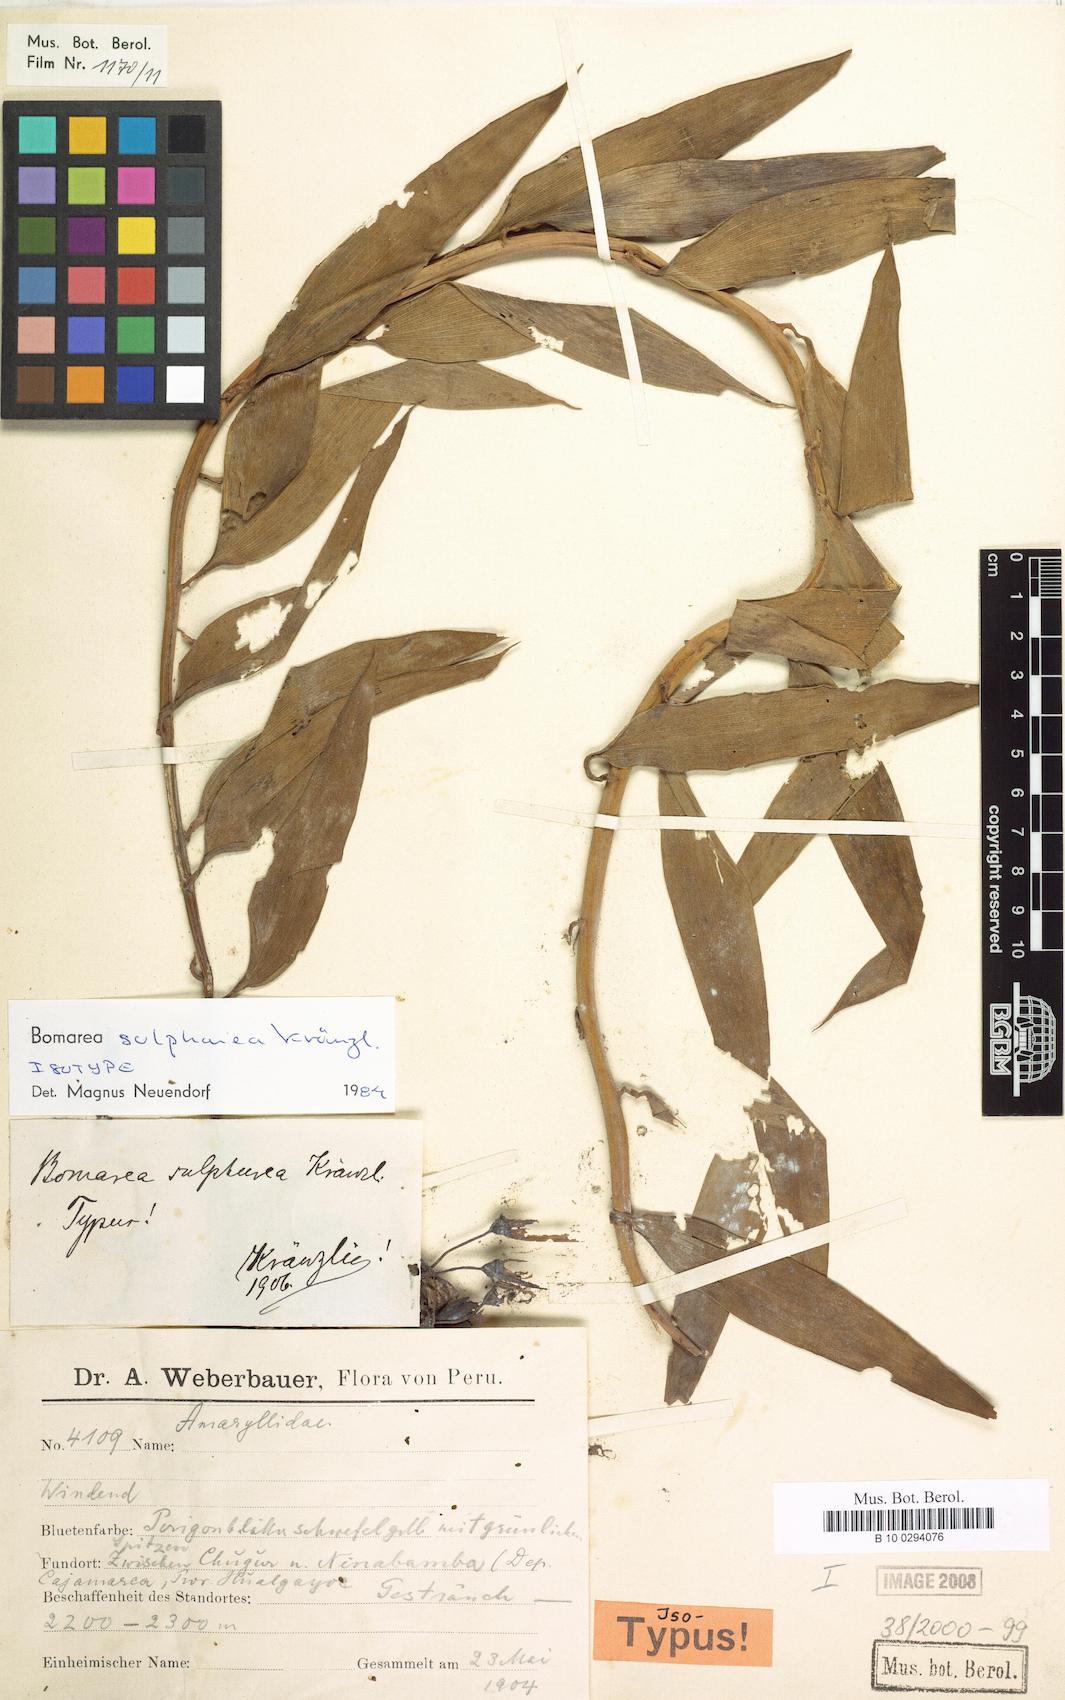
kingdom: Plantae
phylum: Tracheophyta
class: Liliopsida
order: Liliales
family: Alstroemeriaceae
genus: Bomarea
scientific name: Bomarea superba
